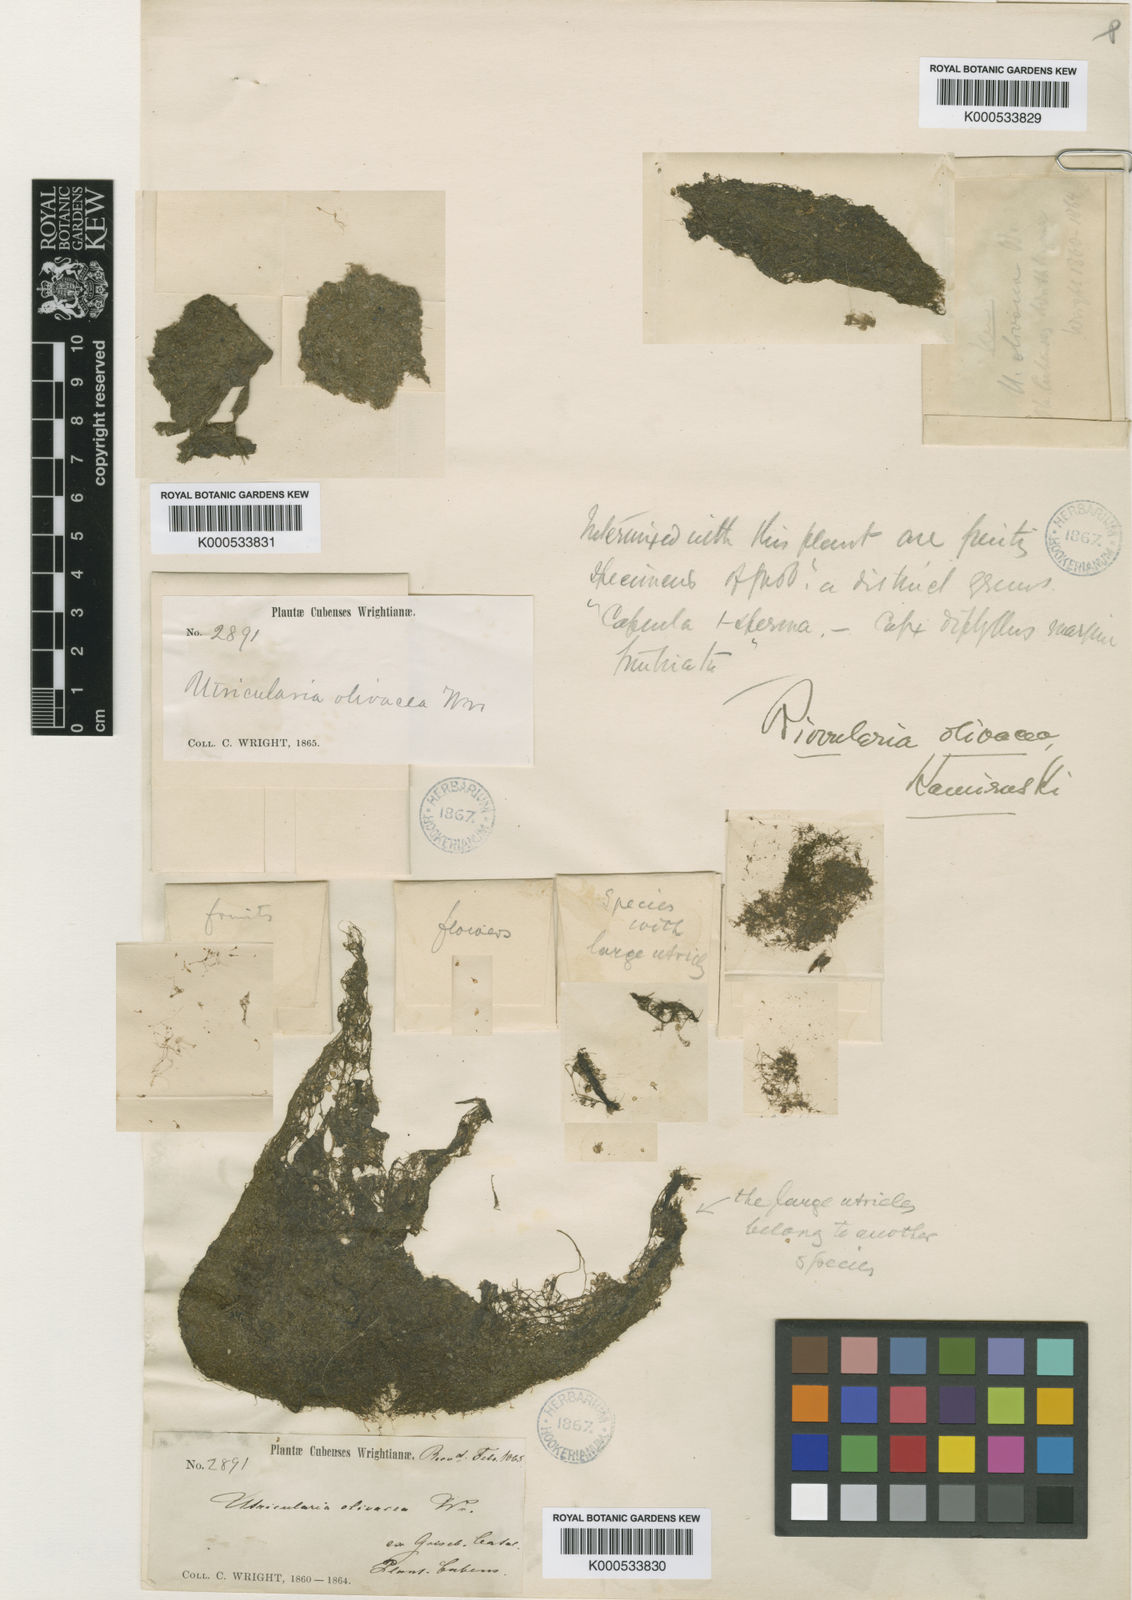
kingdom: Plantae
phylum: Tracheophyta
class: Magnoliopsida
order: Lamiales
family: Lentibulariaceae
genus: Utricularia
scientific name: Utricularia olivacea
